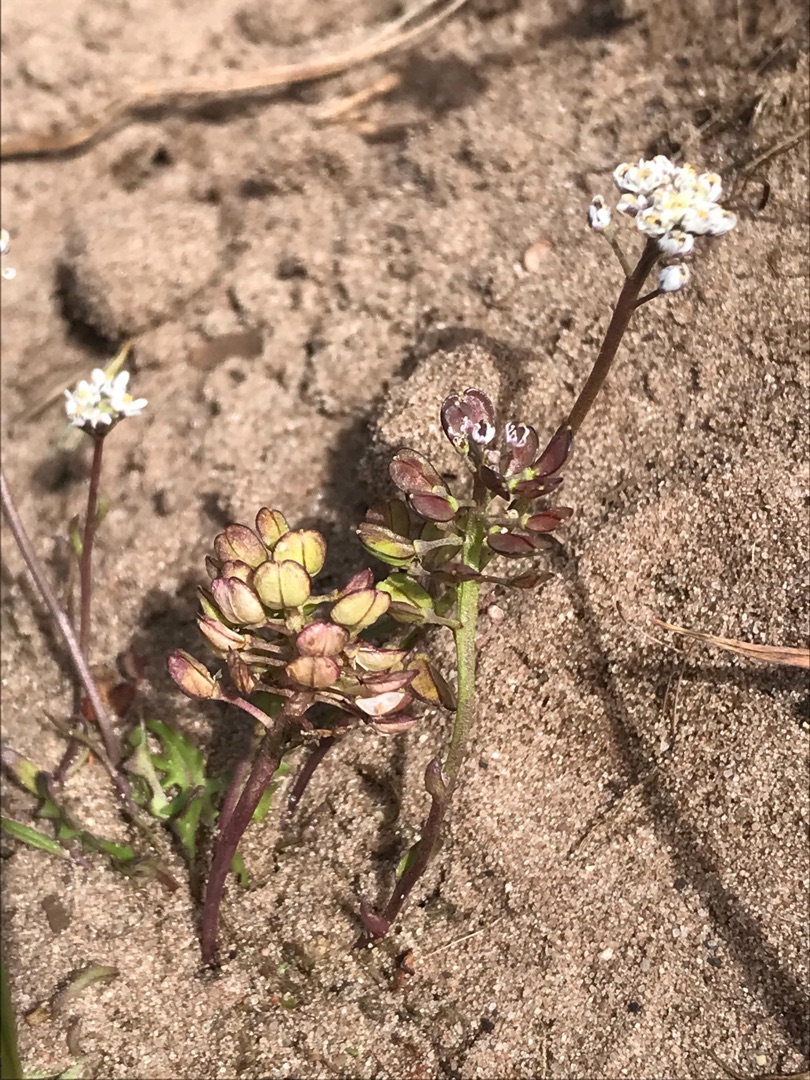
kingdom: Plantae
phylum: Tracheophyta
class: Magnoliopsida
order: Brassicales
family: Brassicaceae
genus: Teesdalia
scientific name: Teesdalia nudicaulis
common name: Flipkrave
